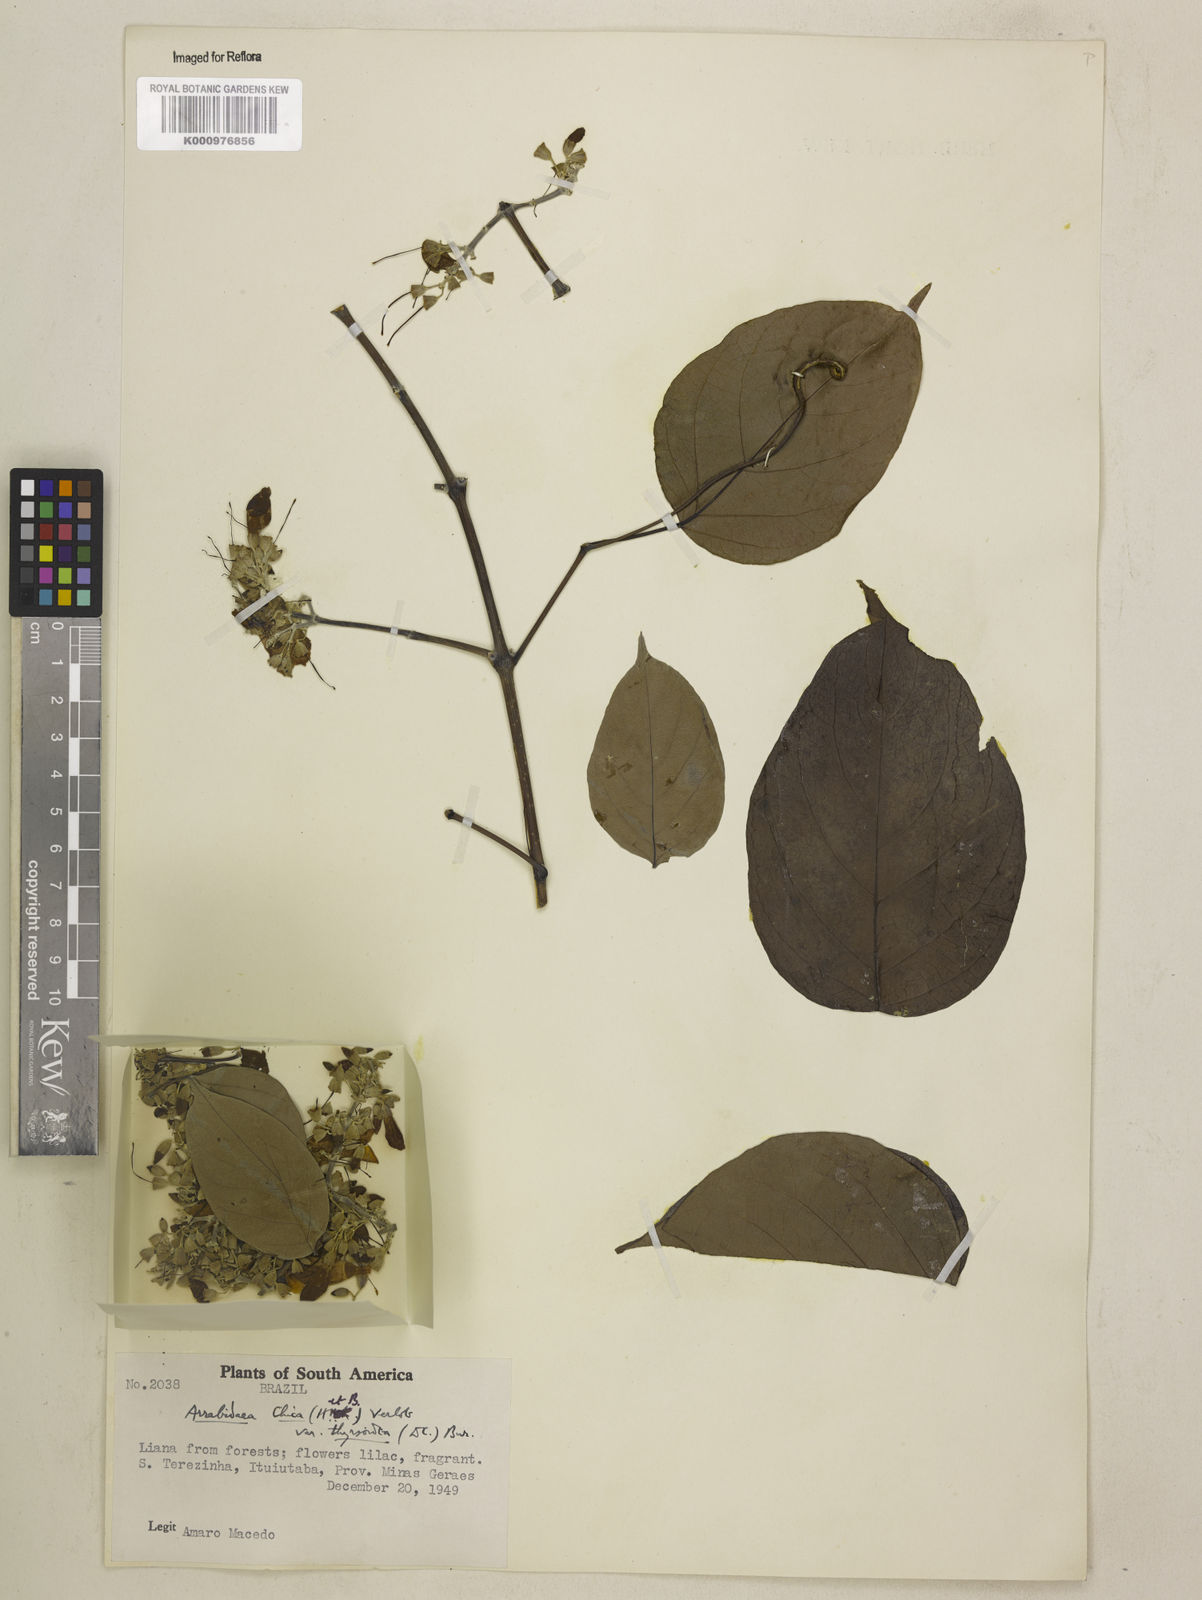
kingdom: Plantae
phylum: Tracheophyta
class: Magnoliopsida
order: Lamiales
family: Bignoniaceae
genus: Fridericia
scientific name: Fridericia chica
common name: Cricketvine
